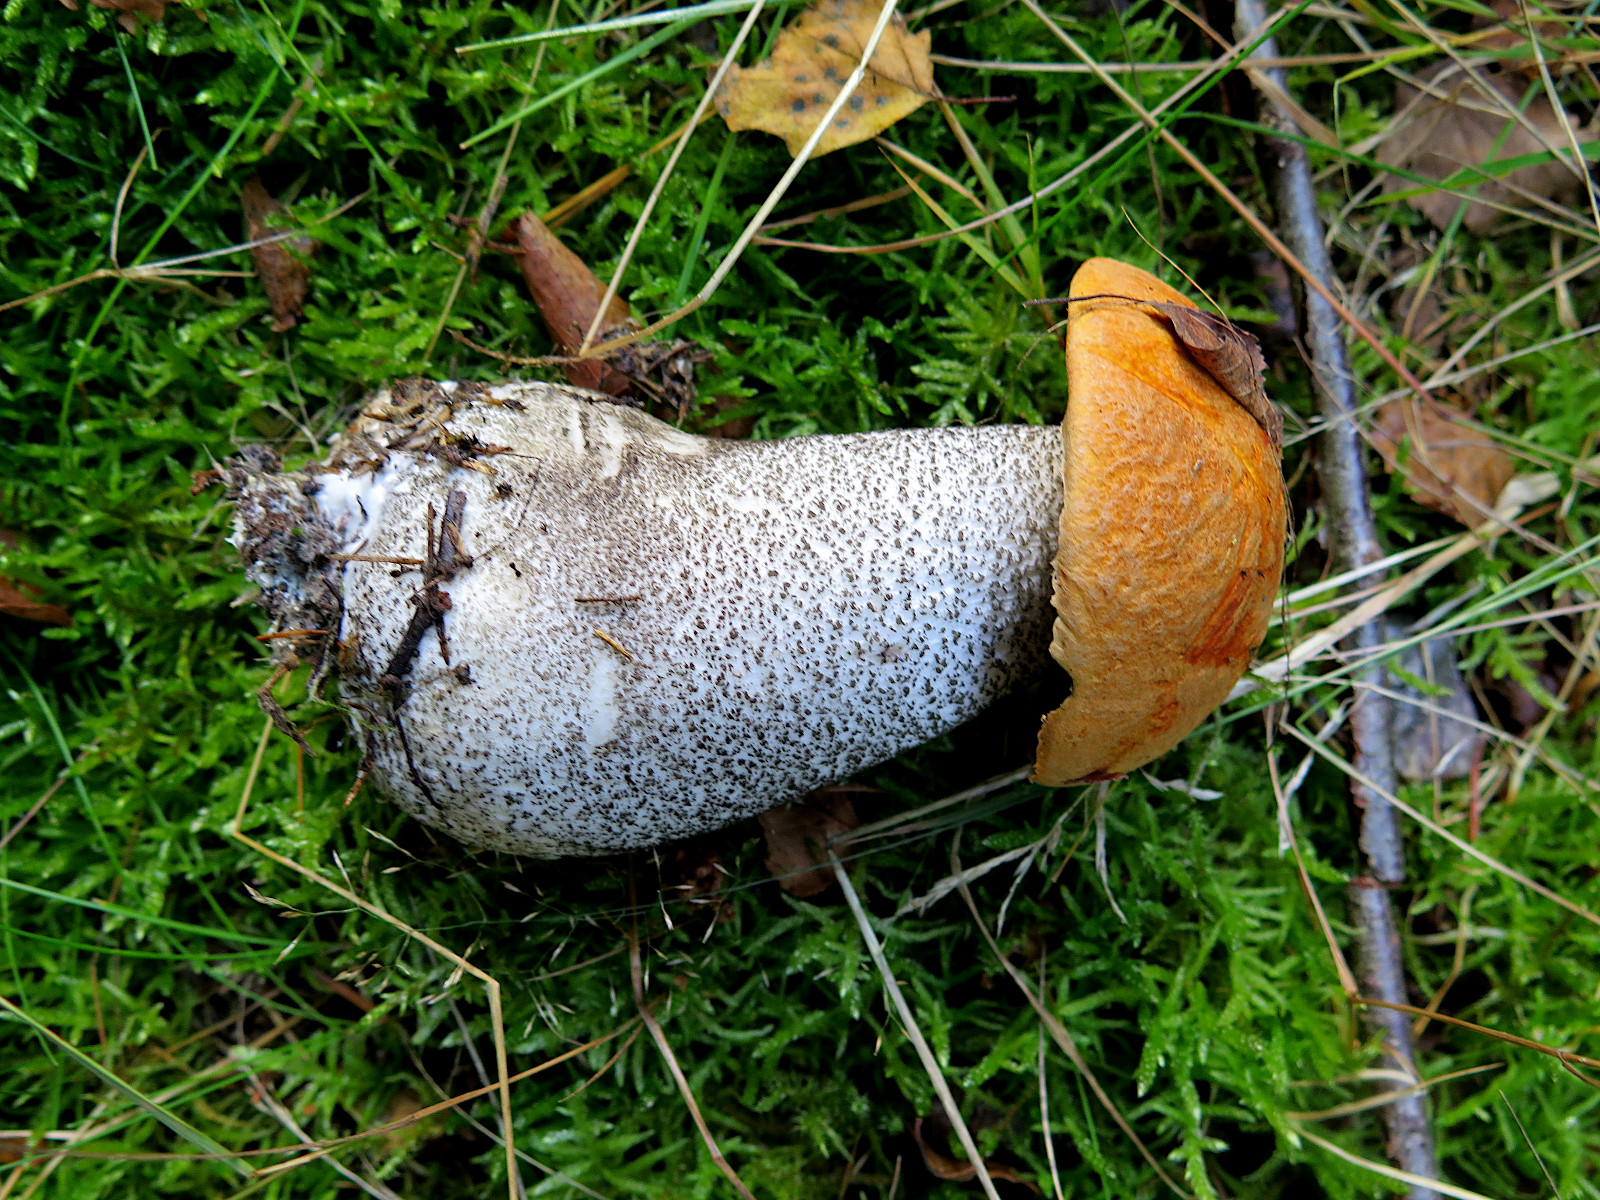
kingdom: Fungi
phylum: Basidiomycota
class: Agaricomycetes
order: Boletales
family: Boletaceae
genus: Leccinum
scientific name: Leccinum versipelle
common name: orange skælrørhat
